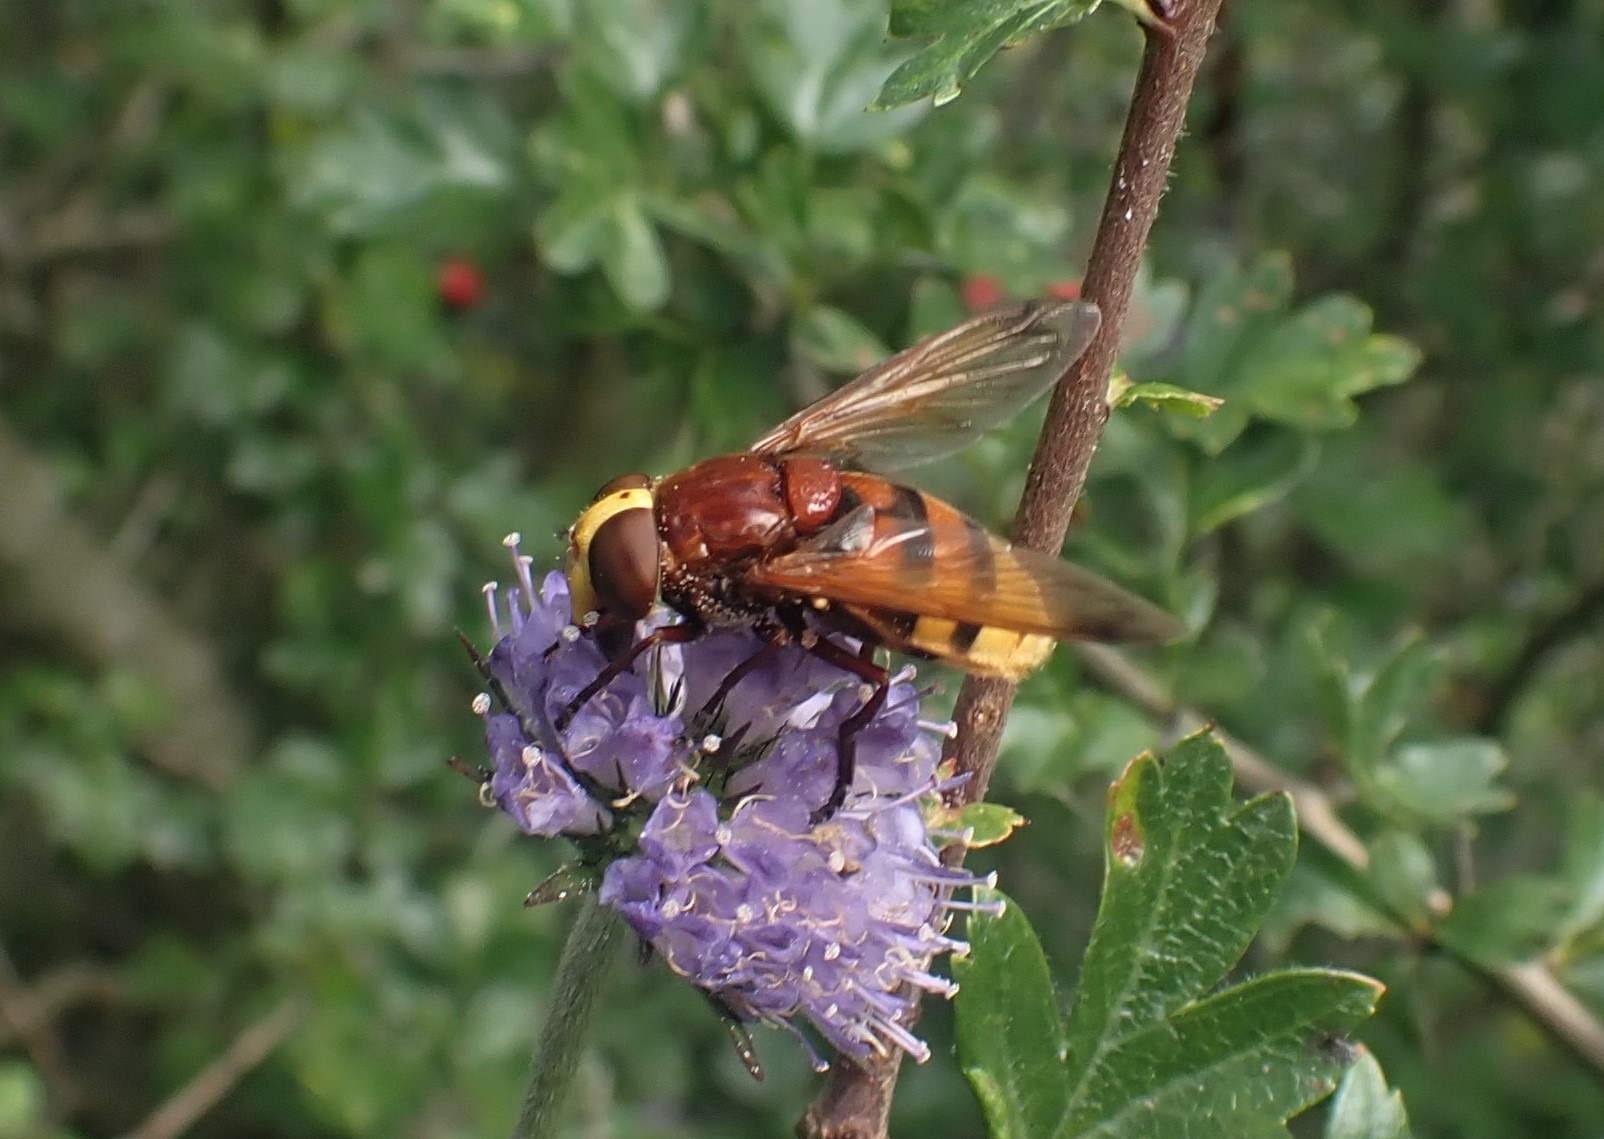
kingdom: Animalia
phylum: Arthropoda
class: Insecta
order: Diptera
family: Syrphidae
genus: Volucella
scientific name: Volucella zonaria
